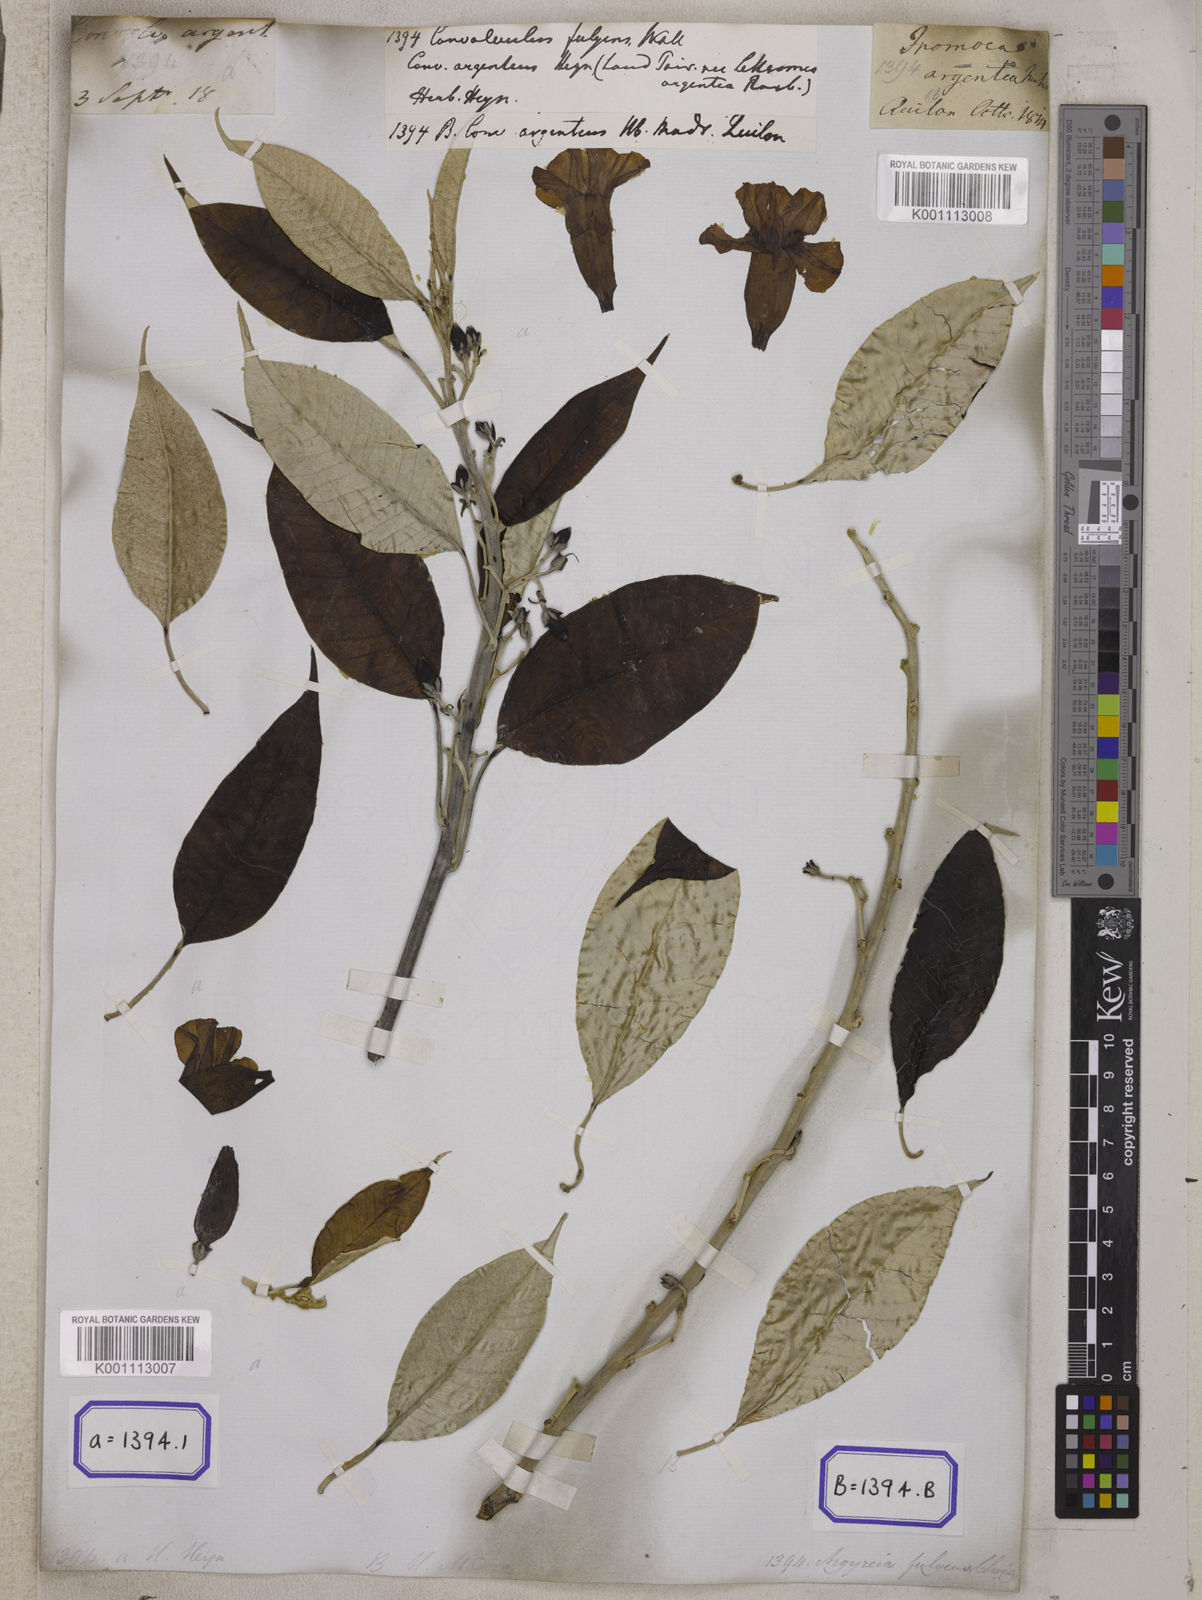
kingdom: Plantae
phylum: Tracheophyta
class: Magnoliopsida
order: Solanales
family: Convolvulaceae
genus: Argyreia
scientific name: Argyreia fulgens
